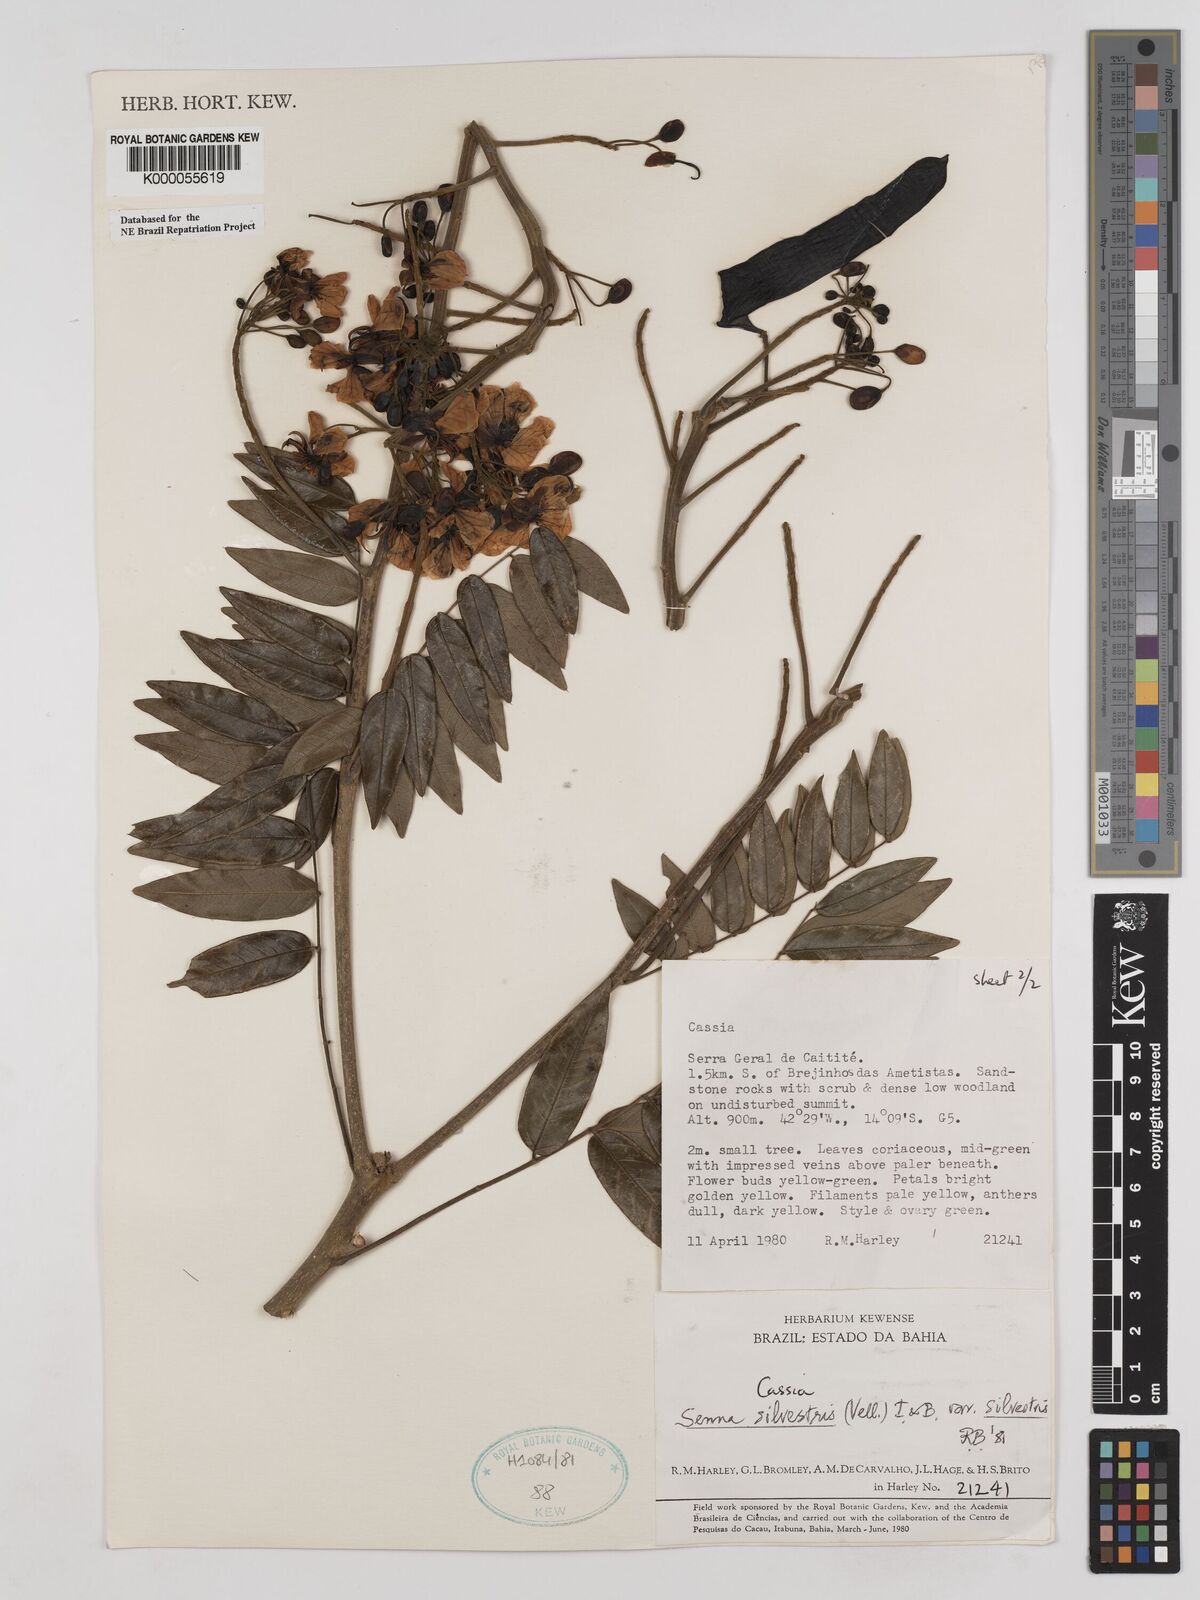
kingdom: Plantae
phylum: Tracheophyta
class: Magnoliopsida
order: Fabales
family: Fabaceae
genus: Senna
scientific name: Senna silvestris
